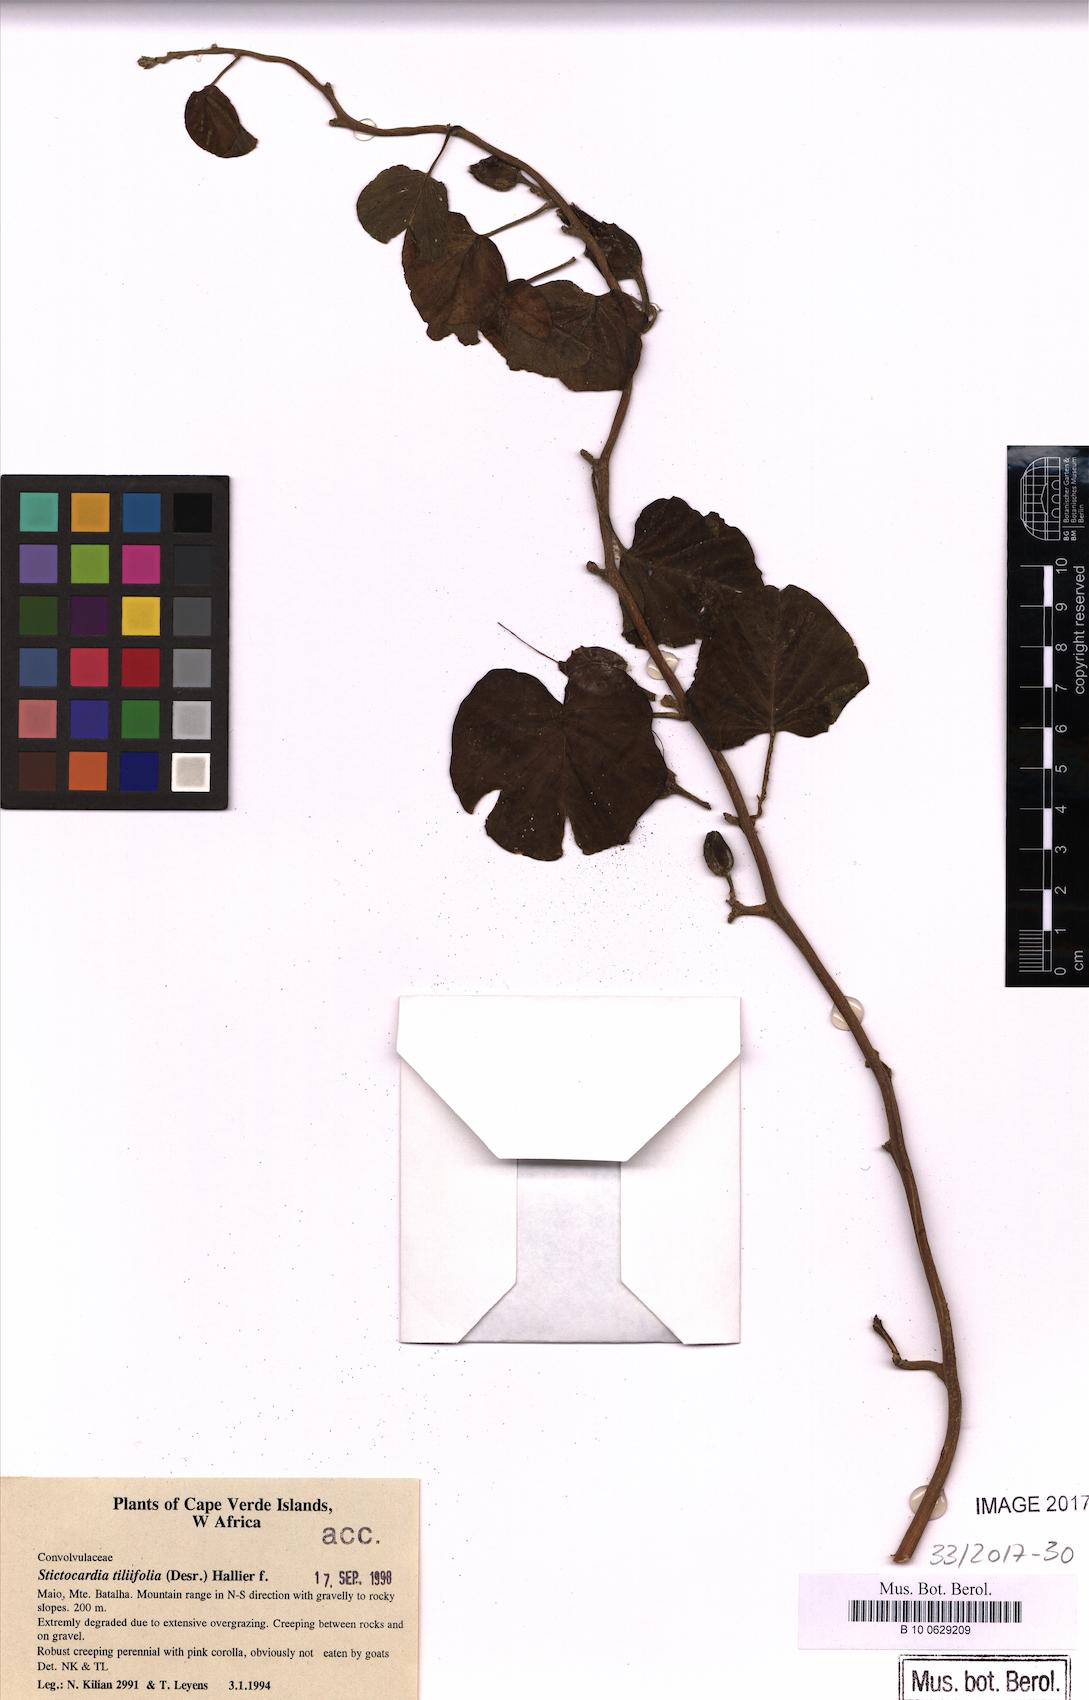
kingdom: Plantae
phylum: Tracheophyta
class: Magnoliopsida
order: Solanales
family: Convolvulaceae
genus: Stictocardia
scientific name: Stictocardia tiliifolia
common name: Spottedheart
